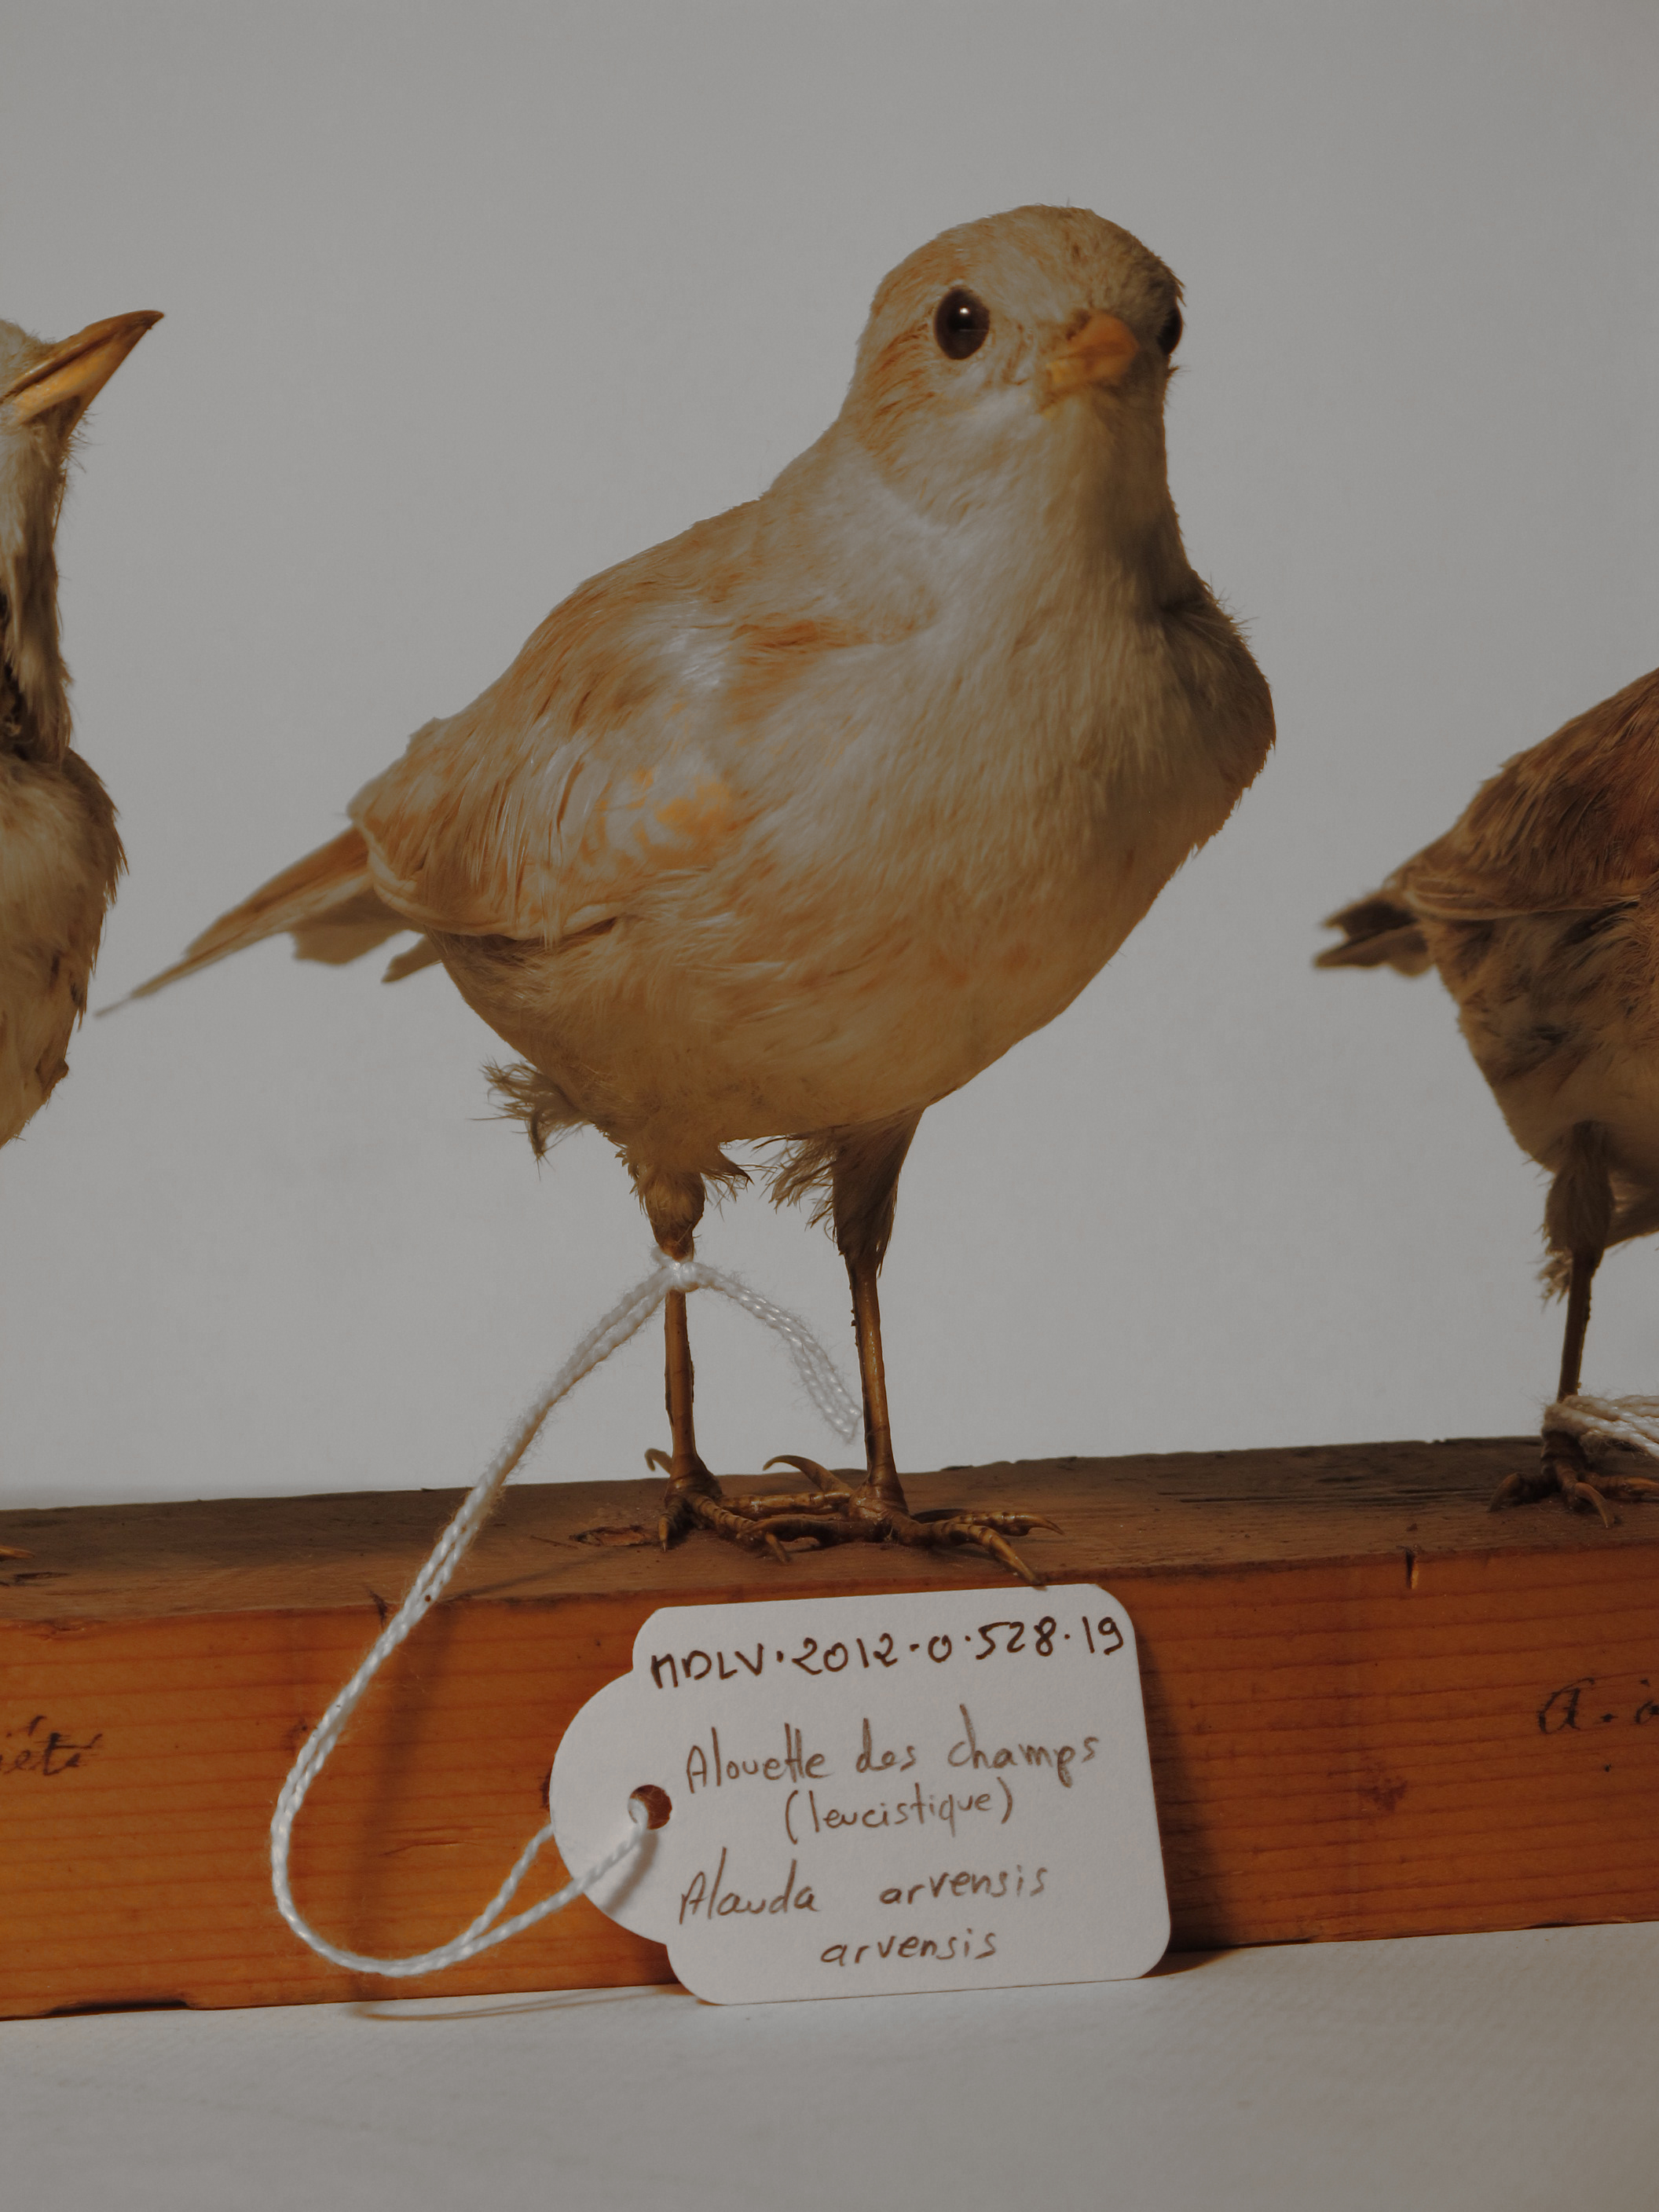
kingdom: Animalia
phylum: Chordata
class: Aves
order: Passeriformes
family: Alaudidae
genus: Alauda
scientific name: Alauda arvensis
